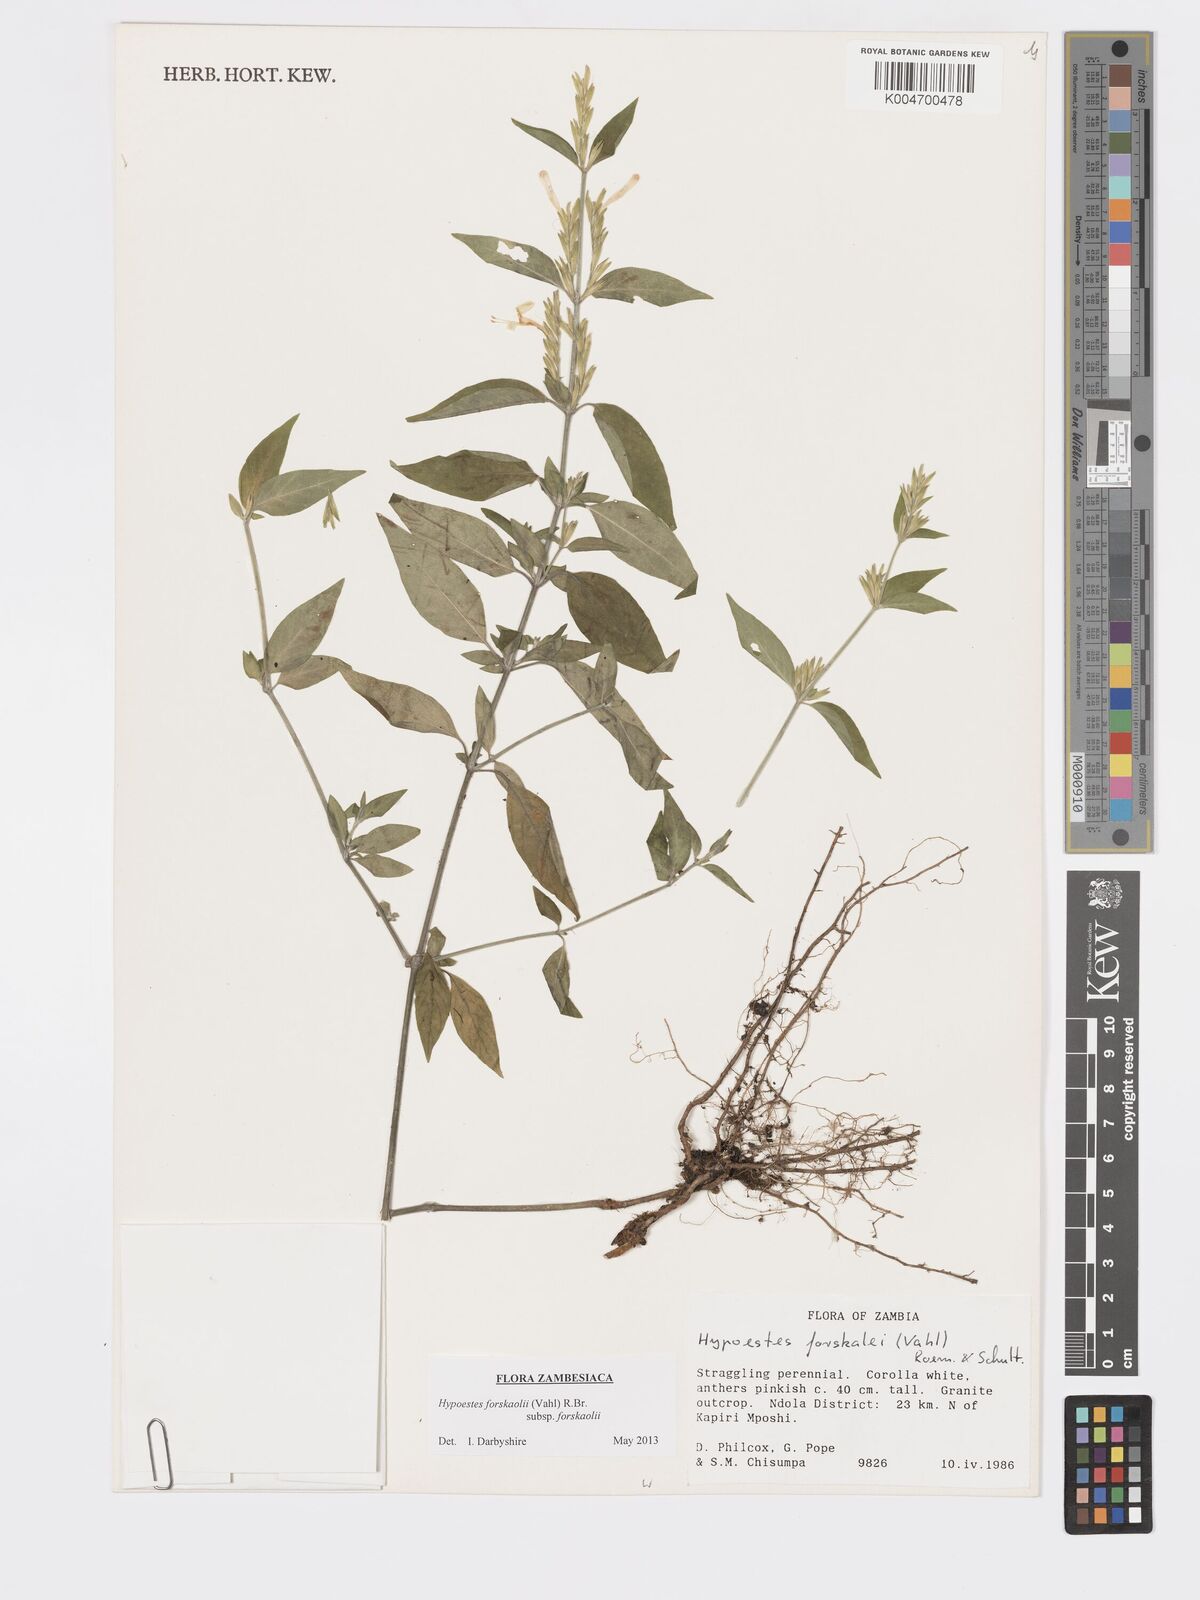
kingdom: Plantae
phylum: Tracheophyta
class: Magnoliopsida
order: Lamiales
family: Acanthaceae
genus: Hypoestes
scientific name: Hypoestes forskaolii
